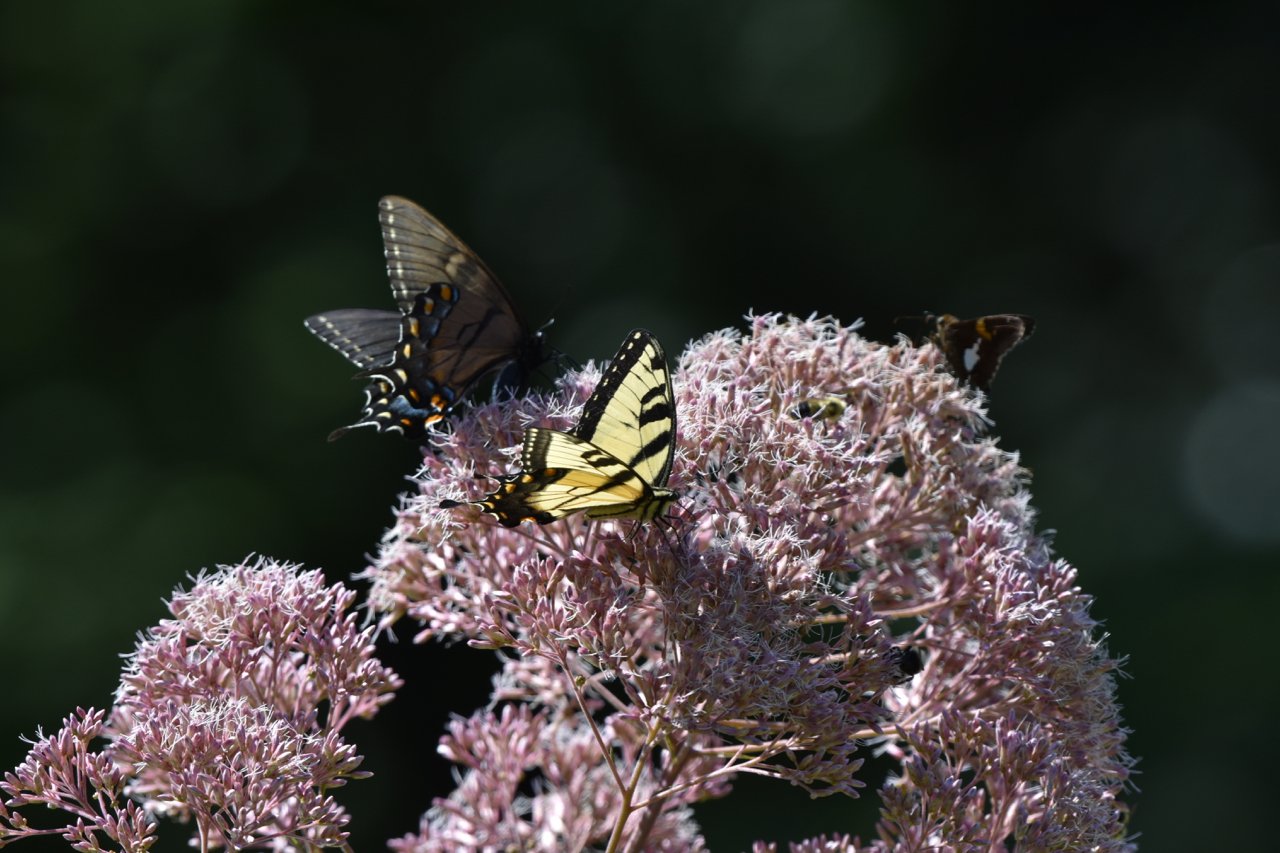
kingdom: Animalia
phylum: Arthropoda
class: Insecta
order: Lepidoptera
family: Papilionidae
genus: Pterourus
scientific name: Pterourus glaucus
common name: Eastern Tiger Swallowtail
